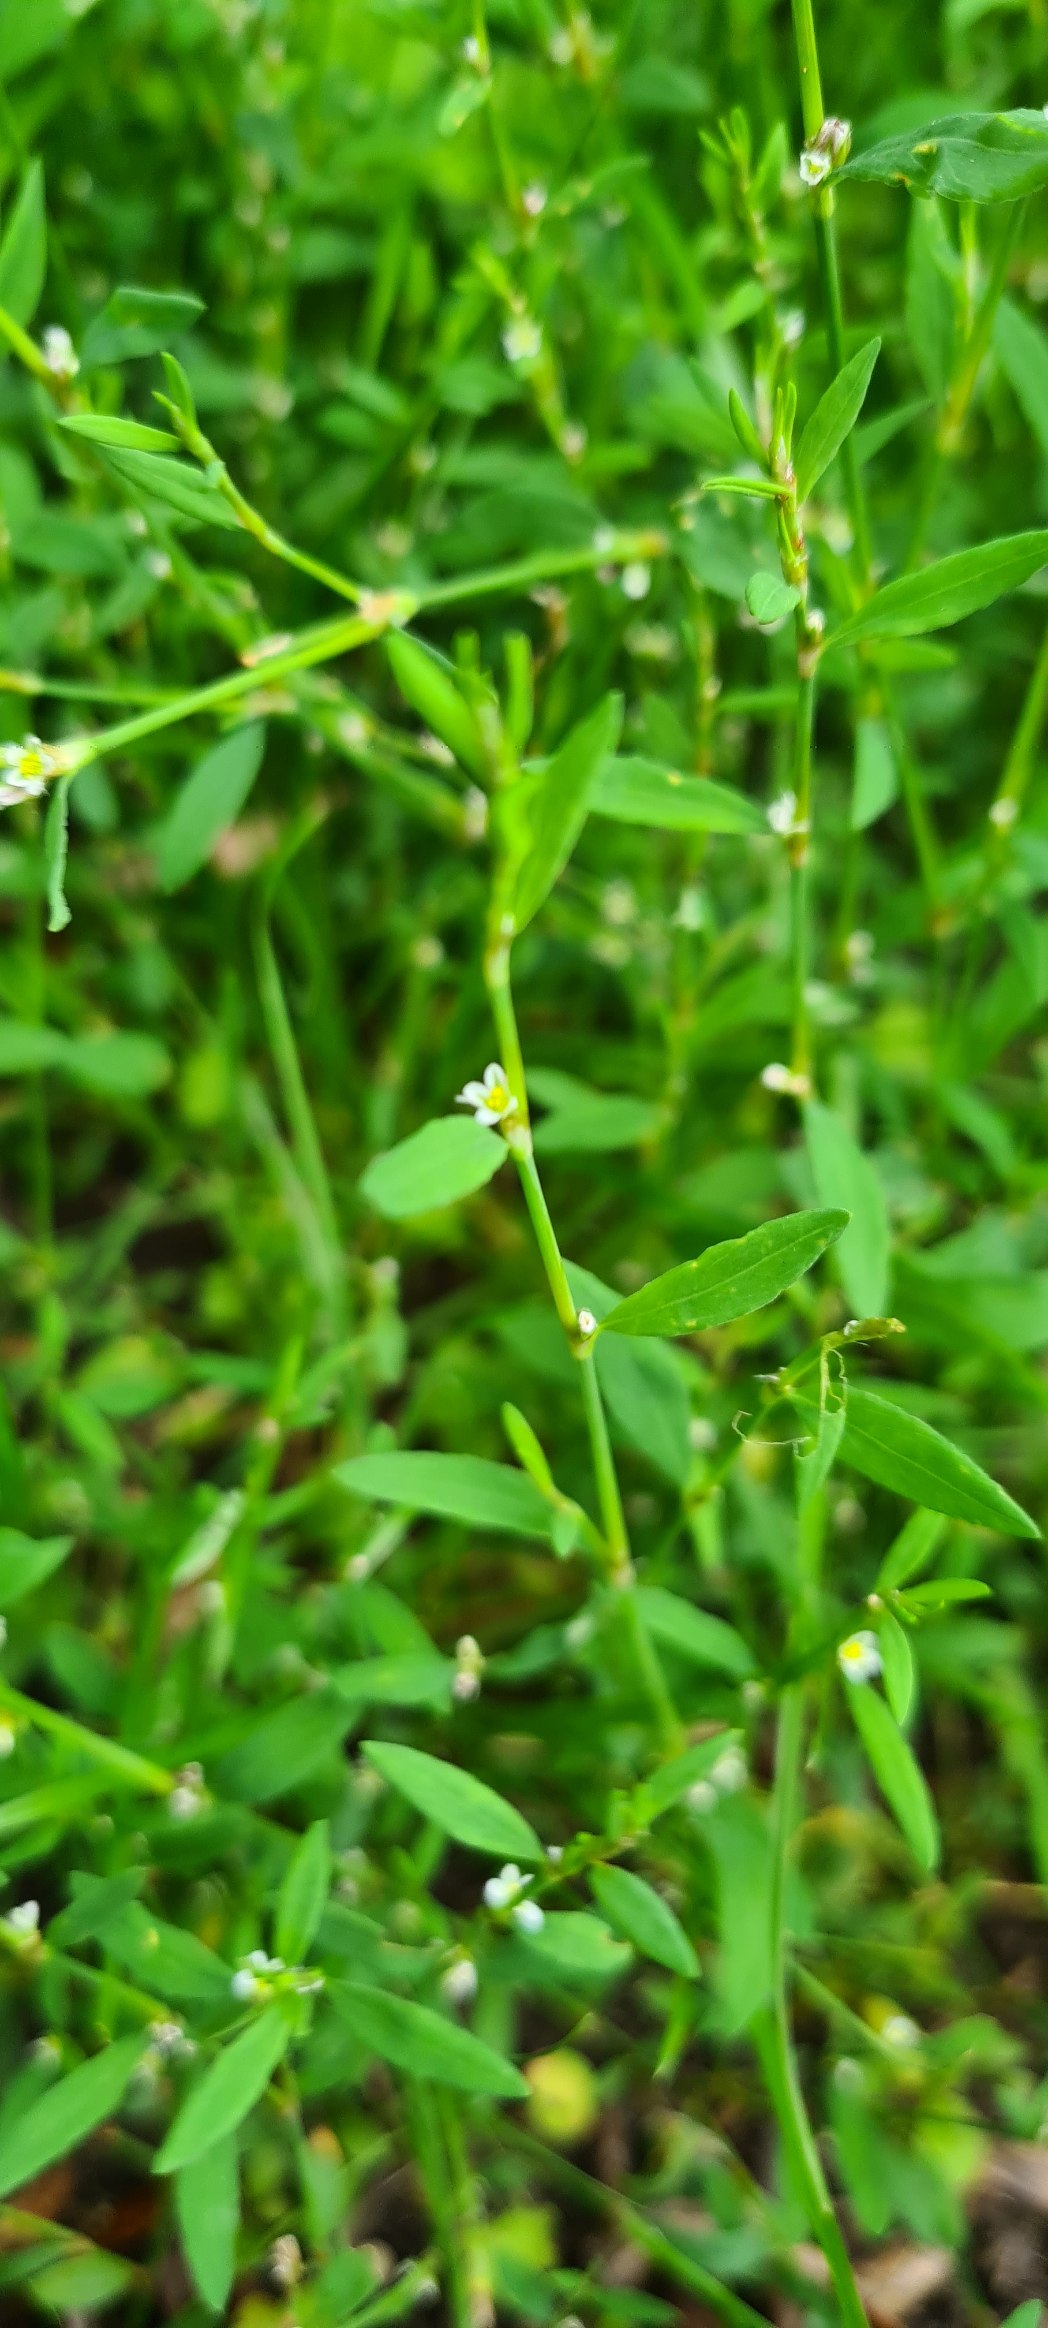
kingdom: Plantae
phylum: Tracheophyta
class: Magnoliopsida
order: Caryophyllales
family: Polygonaceae
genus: Polygonum
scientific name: Polygonum aviculare
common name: Vej-pileurt
